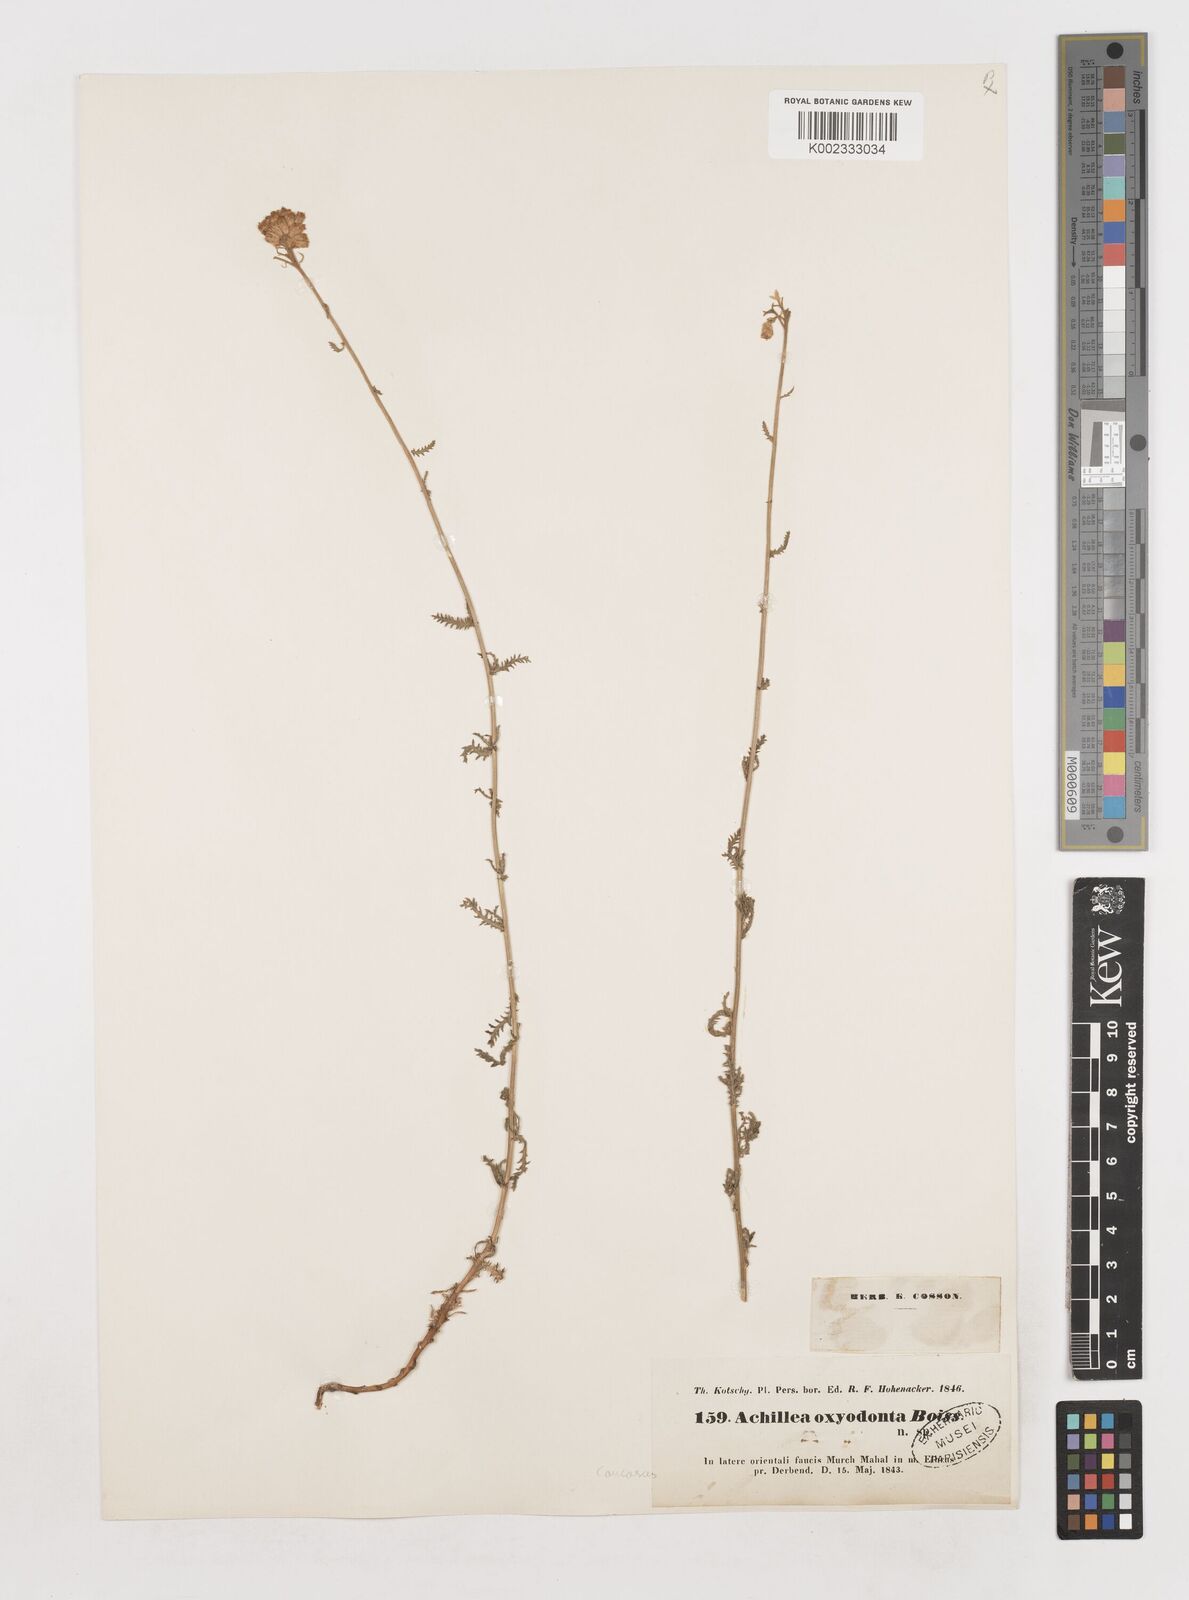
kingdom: Plantae
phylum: Tracheophyta
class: Magnoliopsida
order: Asterales
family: Asteraceae
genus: Achillea
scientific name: Achillea oxyodonta
